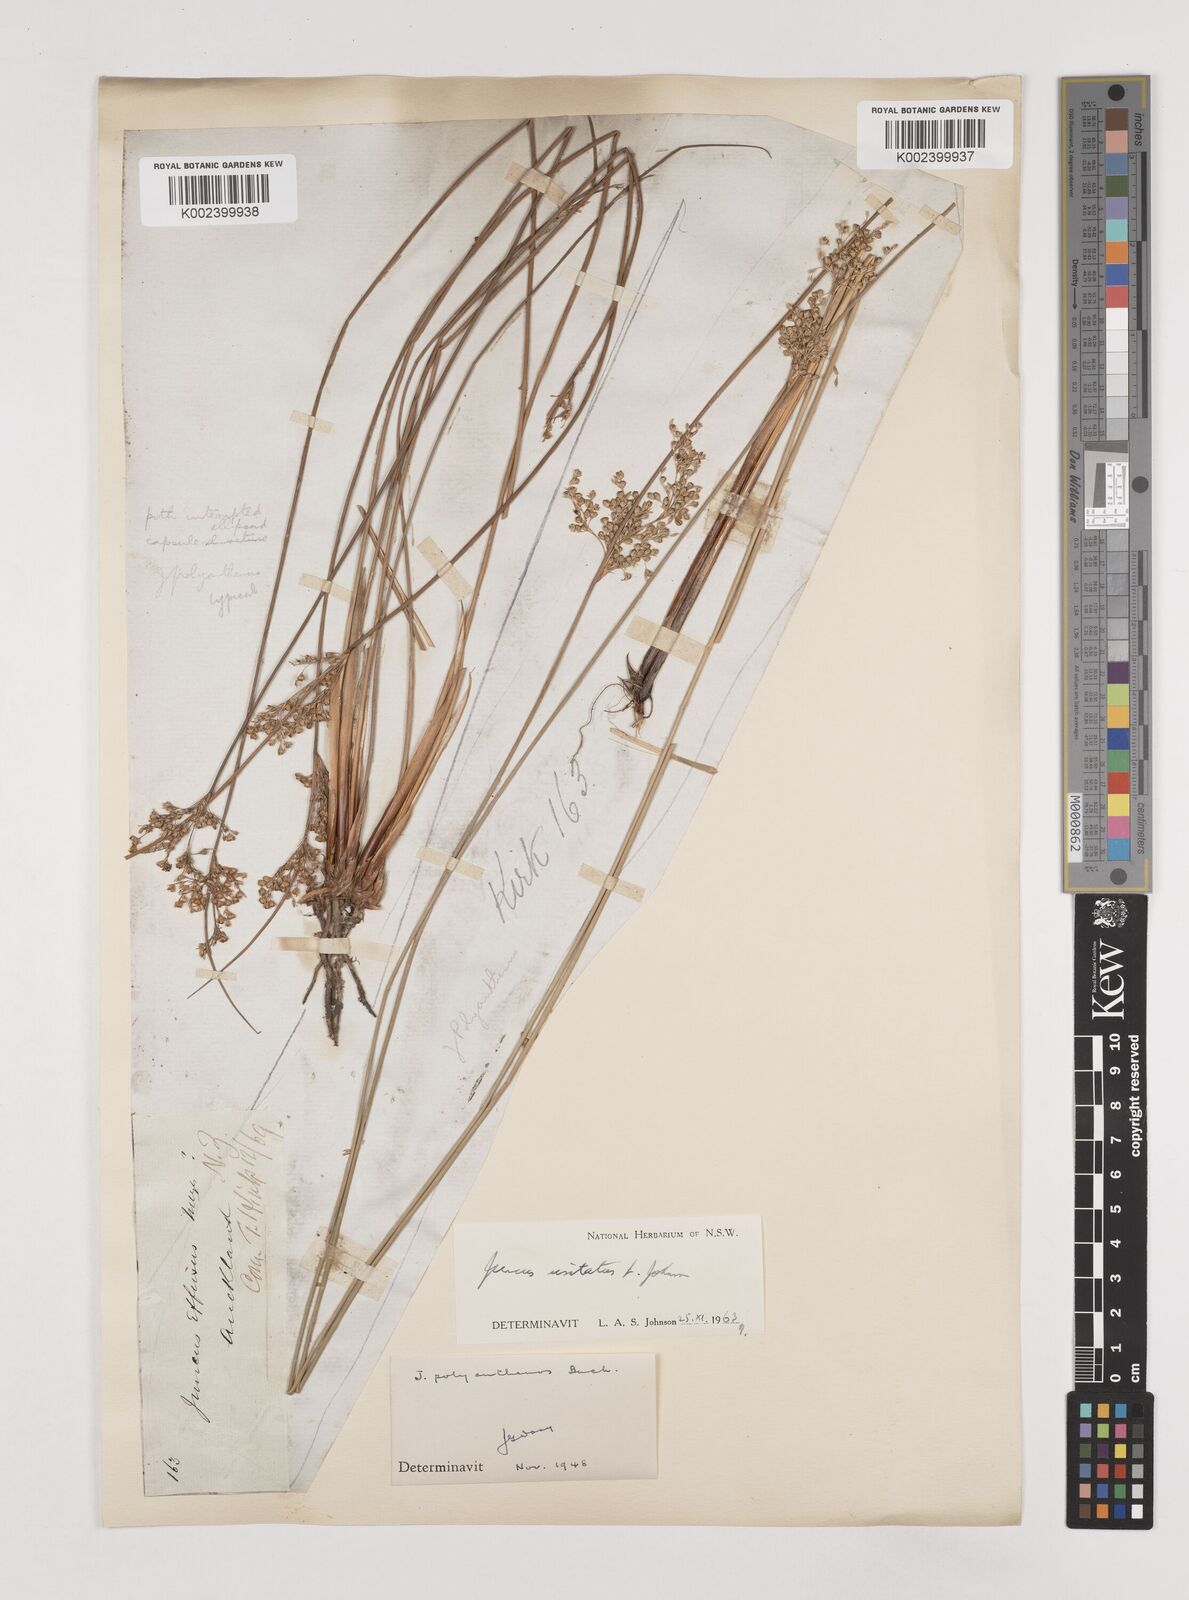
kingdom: Plantae
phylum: Tracheophyta
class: Liliopsida
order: Poales
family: Juncaceae
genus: Juncus
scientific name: Juncus usitatus
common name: Rush
